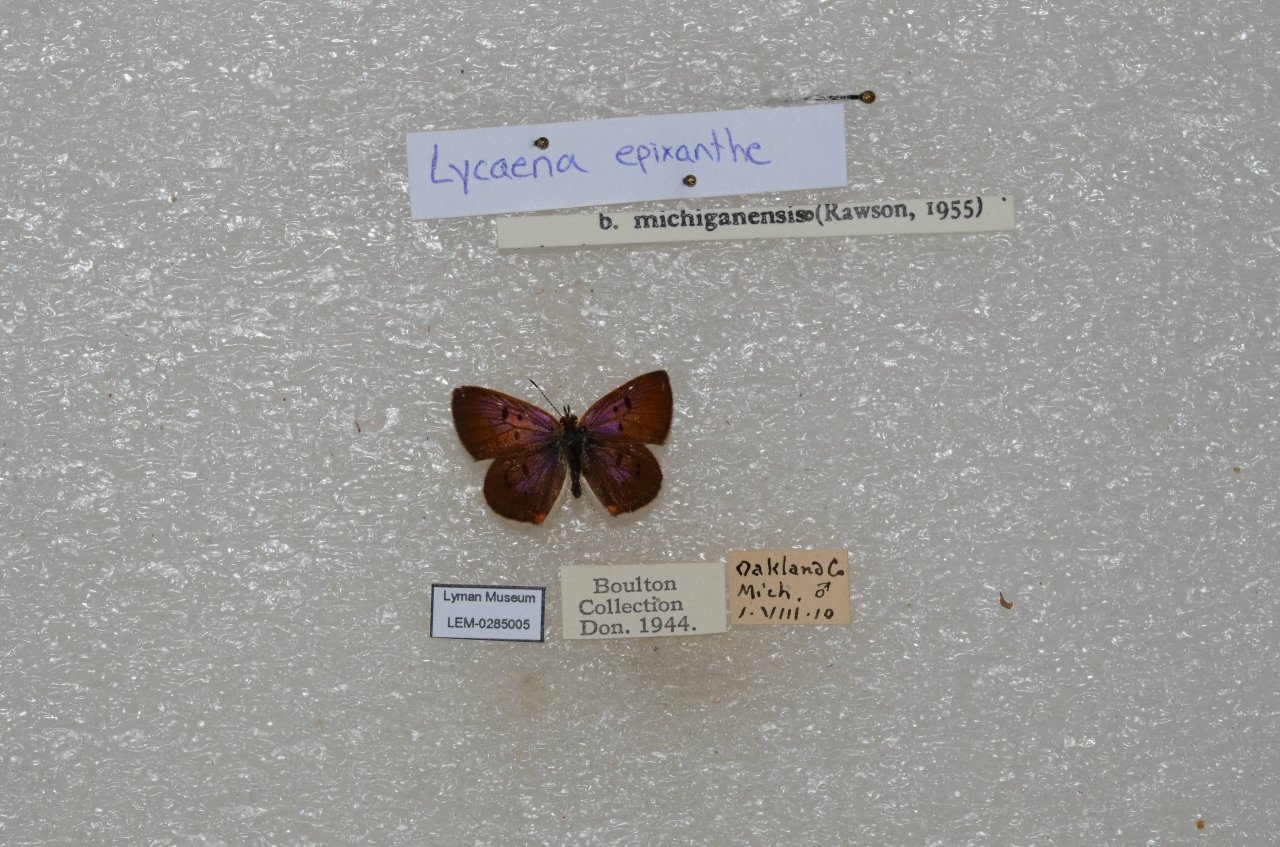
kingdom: Animalia
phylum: Arthropoda
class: Insecta
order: Lepidoptera
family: Sesiidae
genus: Sesia
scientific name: Sesia Lycaena epixanthe
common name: Bog Copper
